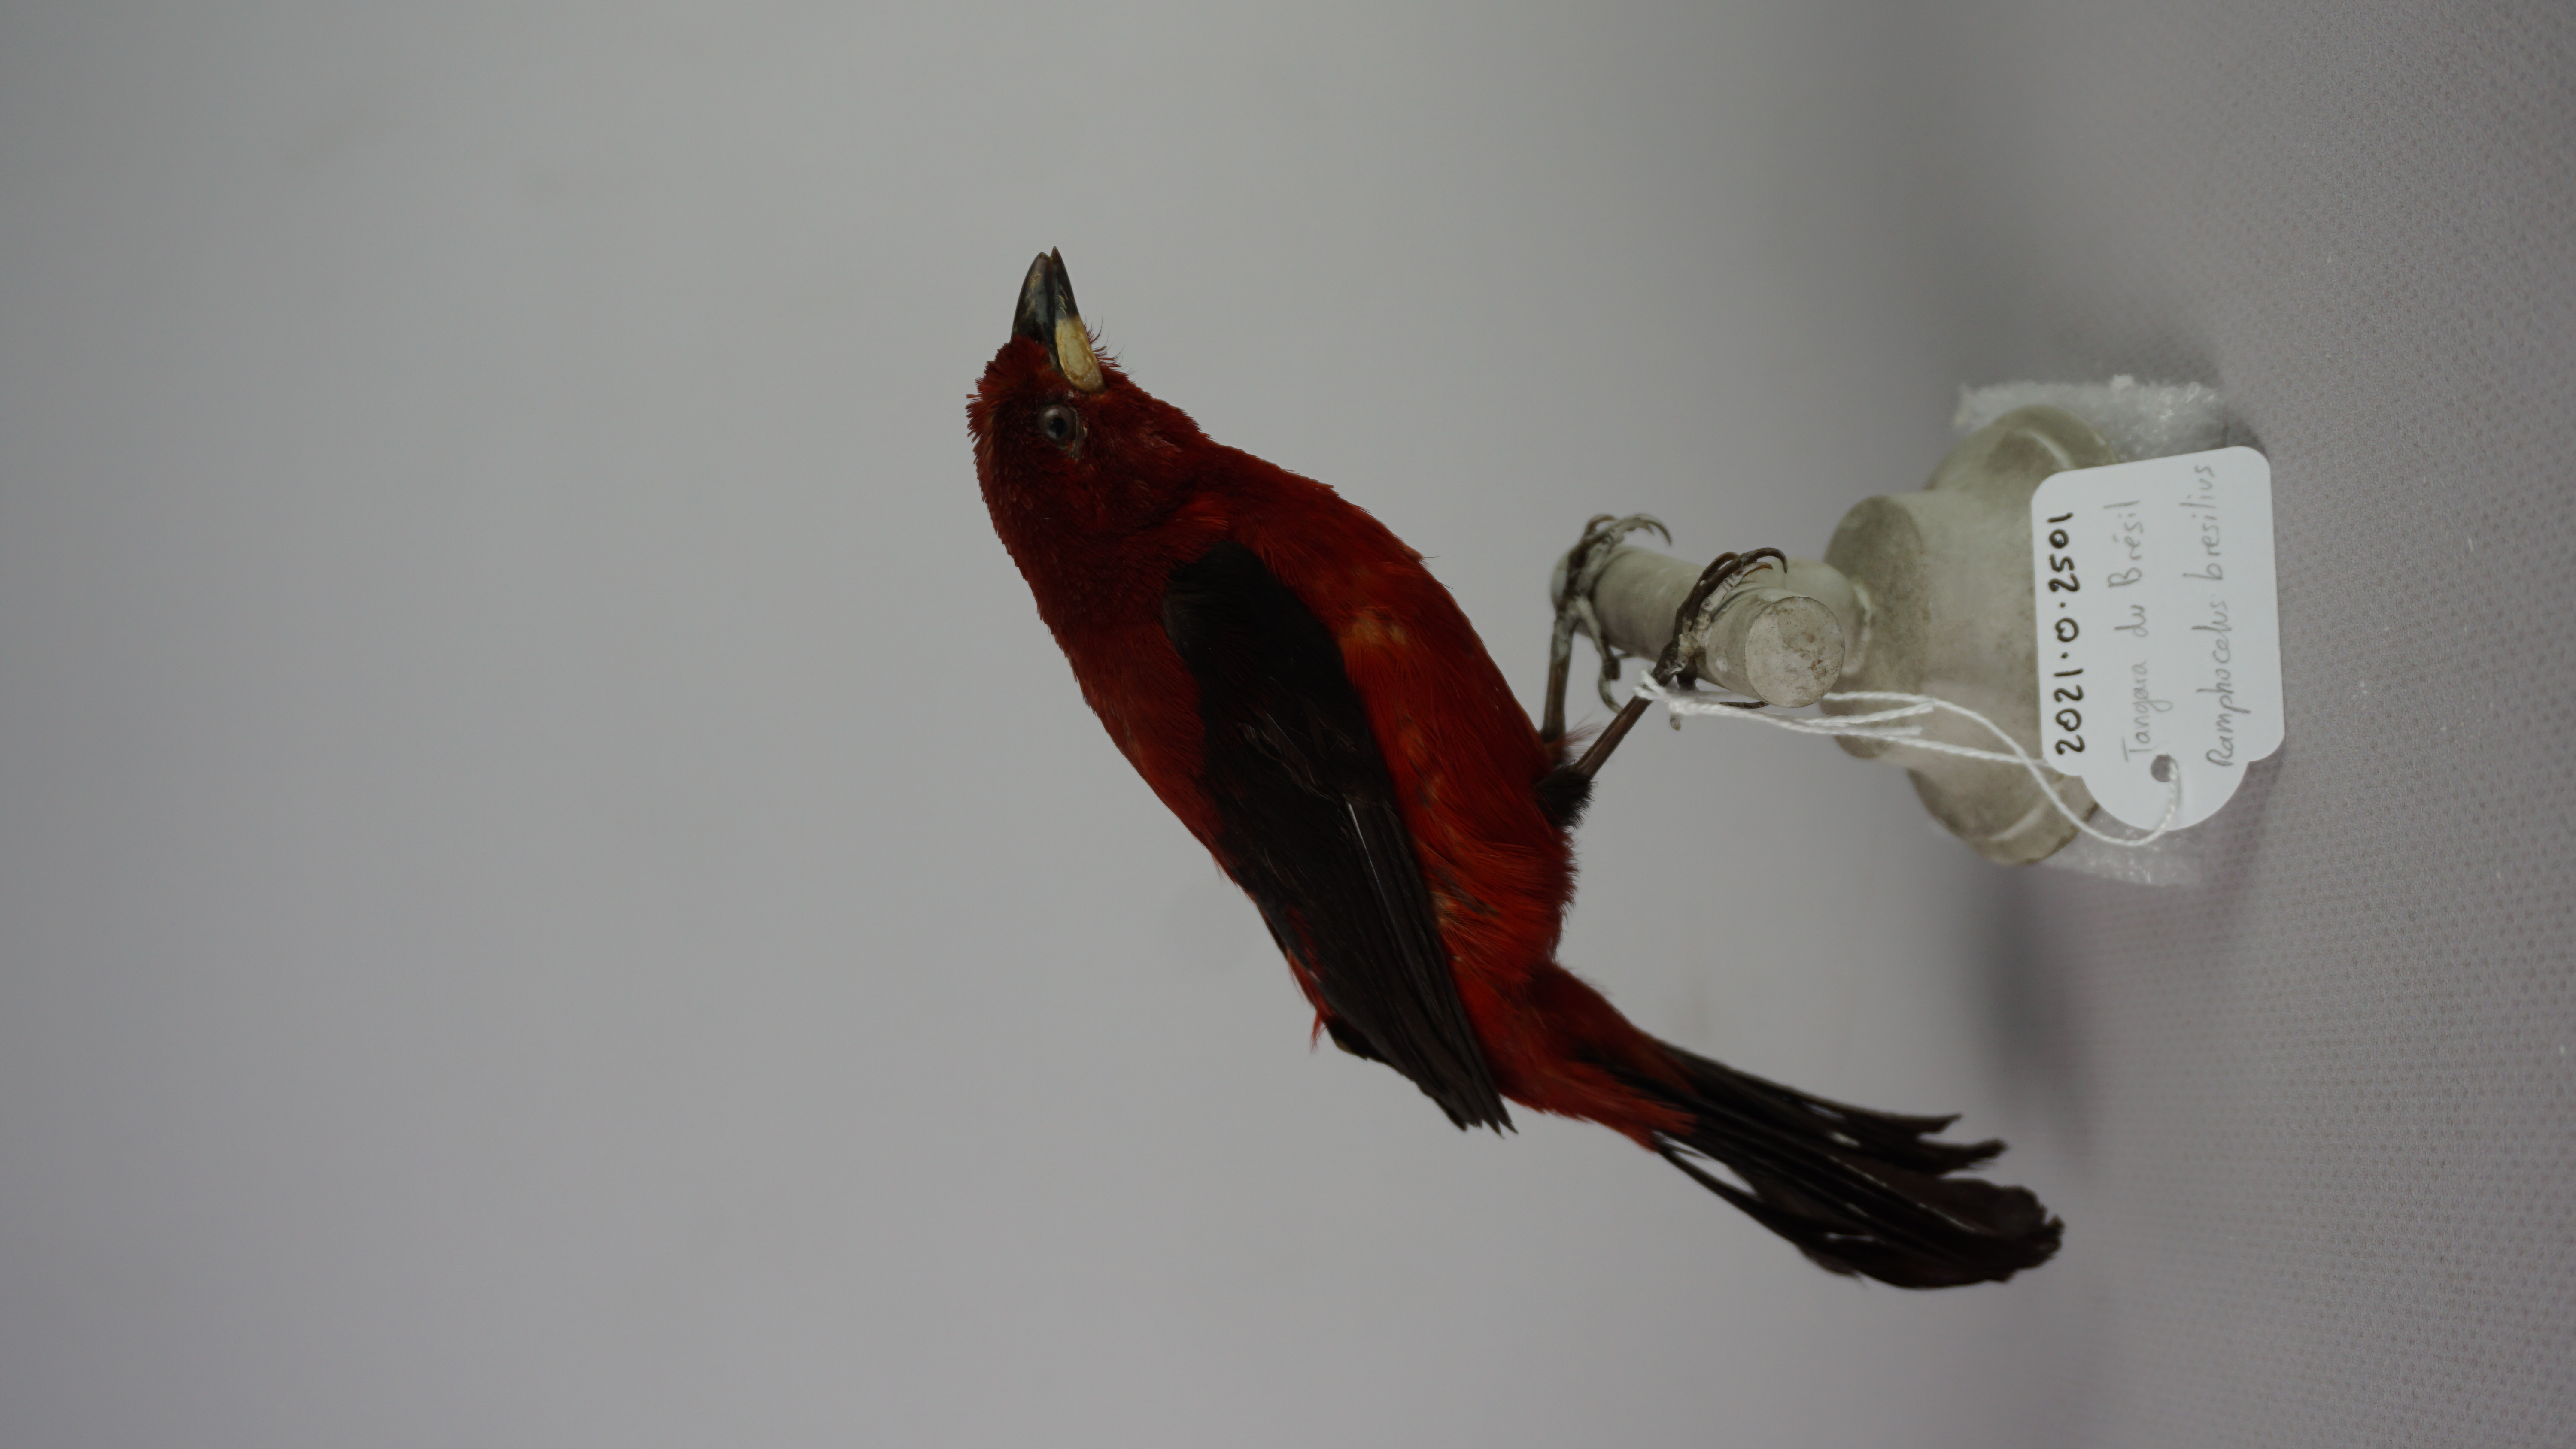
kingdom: Animalia
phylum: Chordata
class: Aves
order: Passeriformes
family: Thraupidae
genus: Ramphocelus
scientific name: Ramphocelus bresilia
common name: Brazilian tanager
